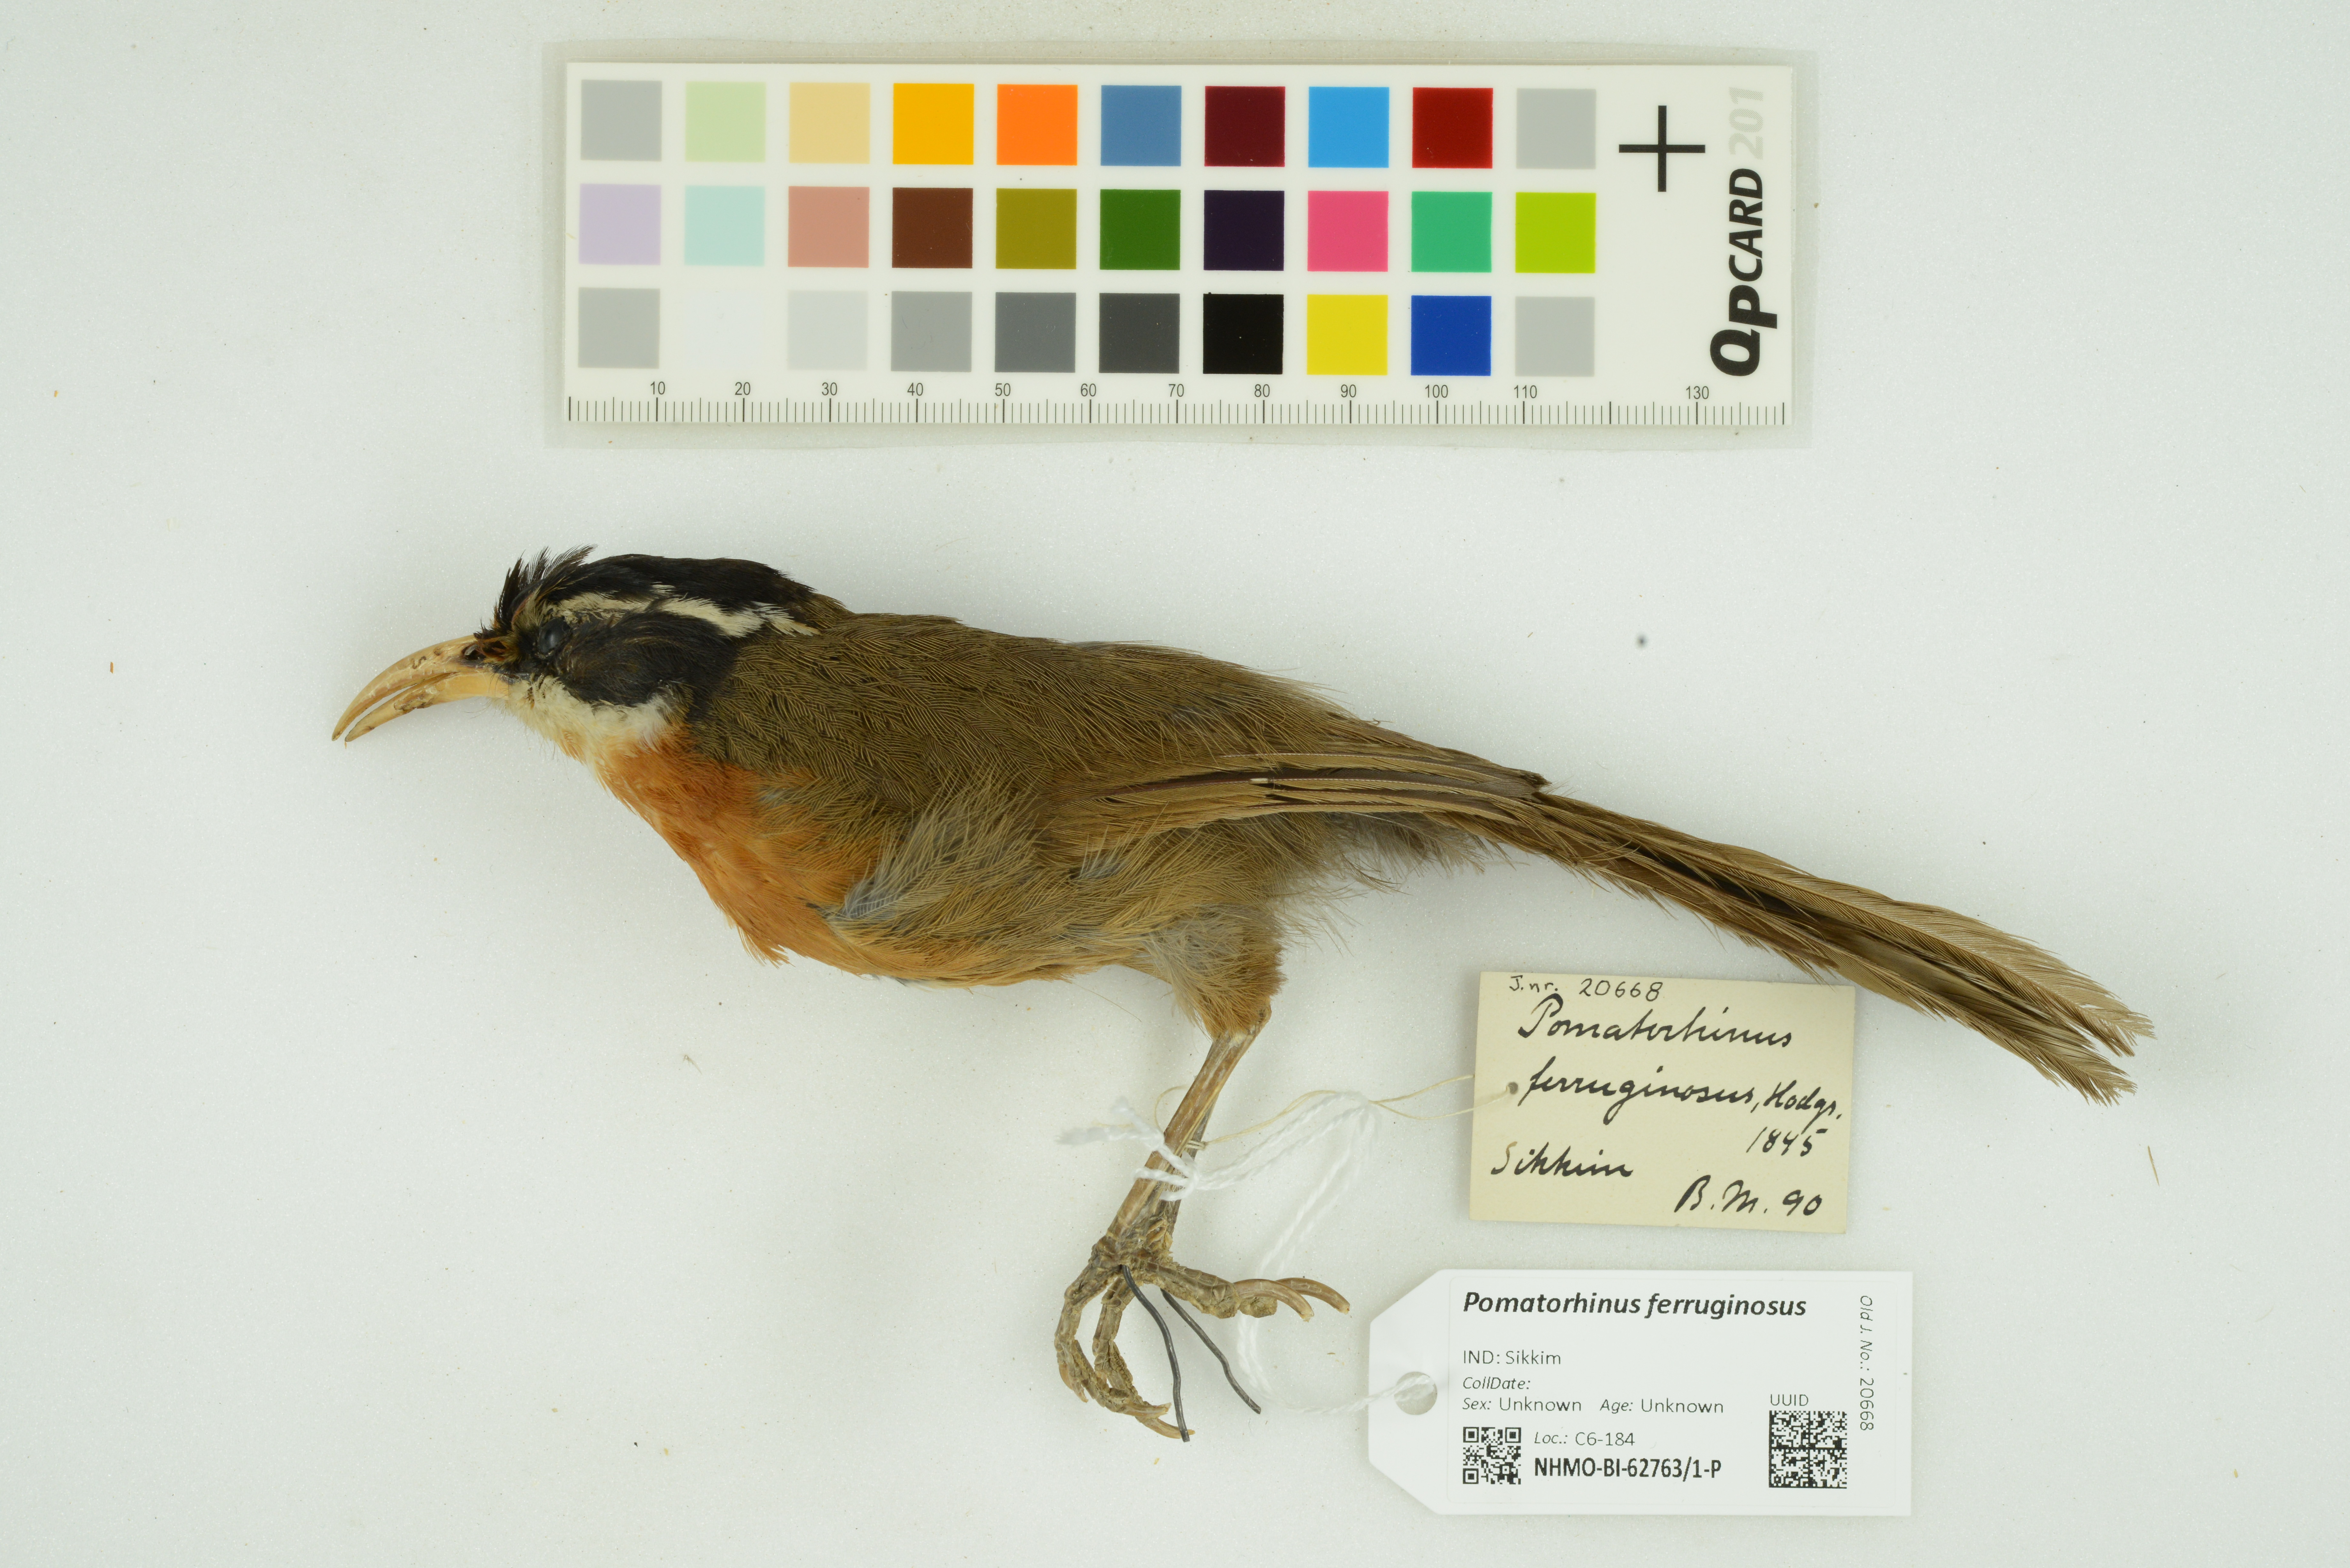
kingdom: Animalia
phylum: Chordata
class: Aves
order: Passeriformes
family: Timaliidae
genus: Pomatorhinus
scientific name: Pomatorhinus ferruginosus
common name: Coral-billed scimitar babbler
